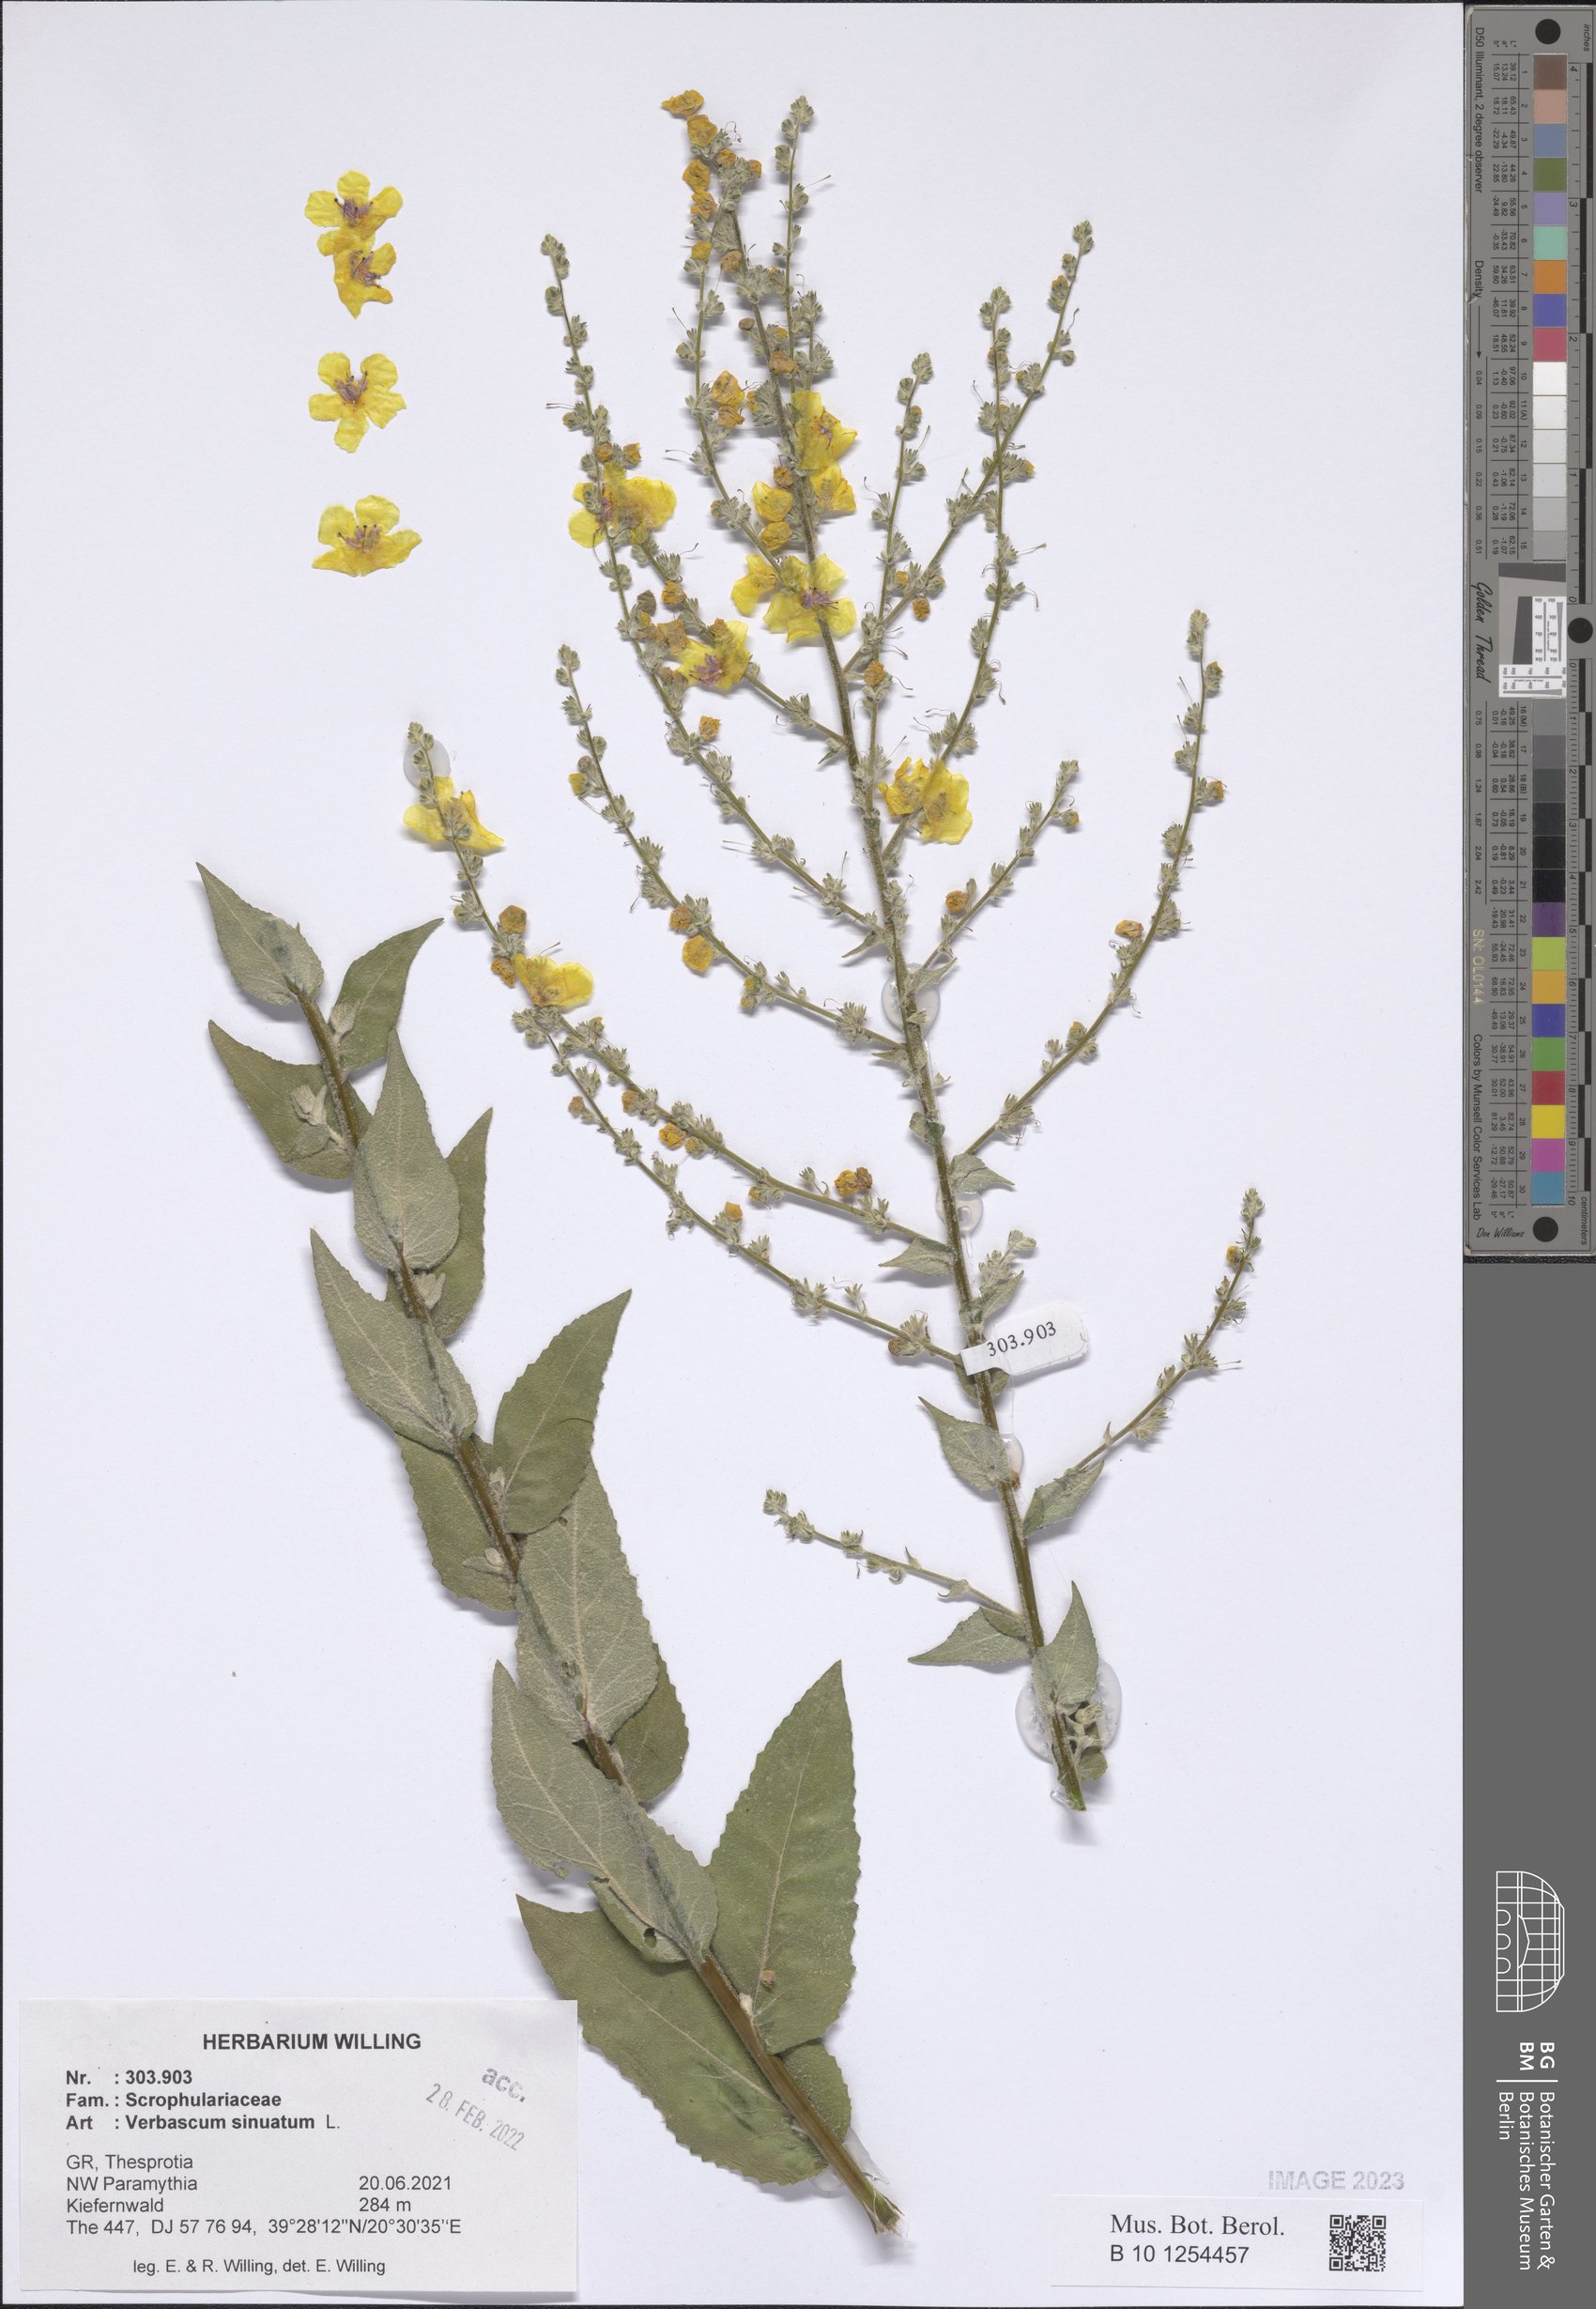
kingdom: Plantae
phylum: Tracheophyta
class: Magnoliopsida
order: Lamiales
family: Scrophulariaceae
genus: Verbascum
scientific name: Verbascum sinuatum
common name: Wavyleaf mullein
